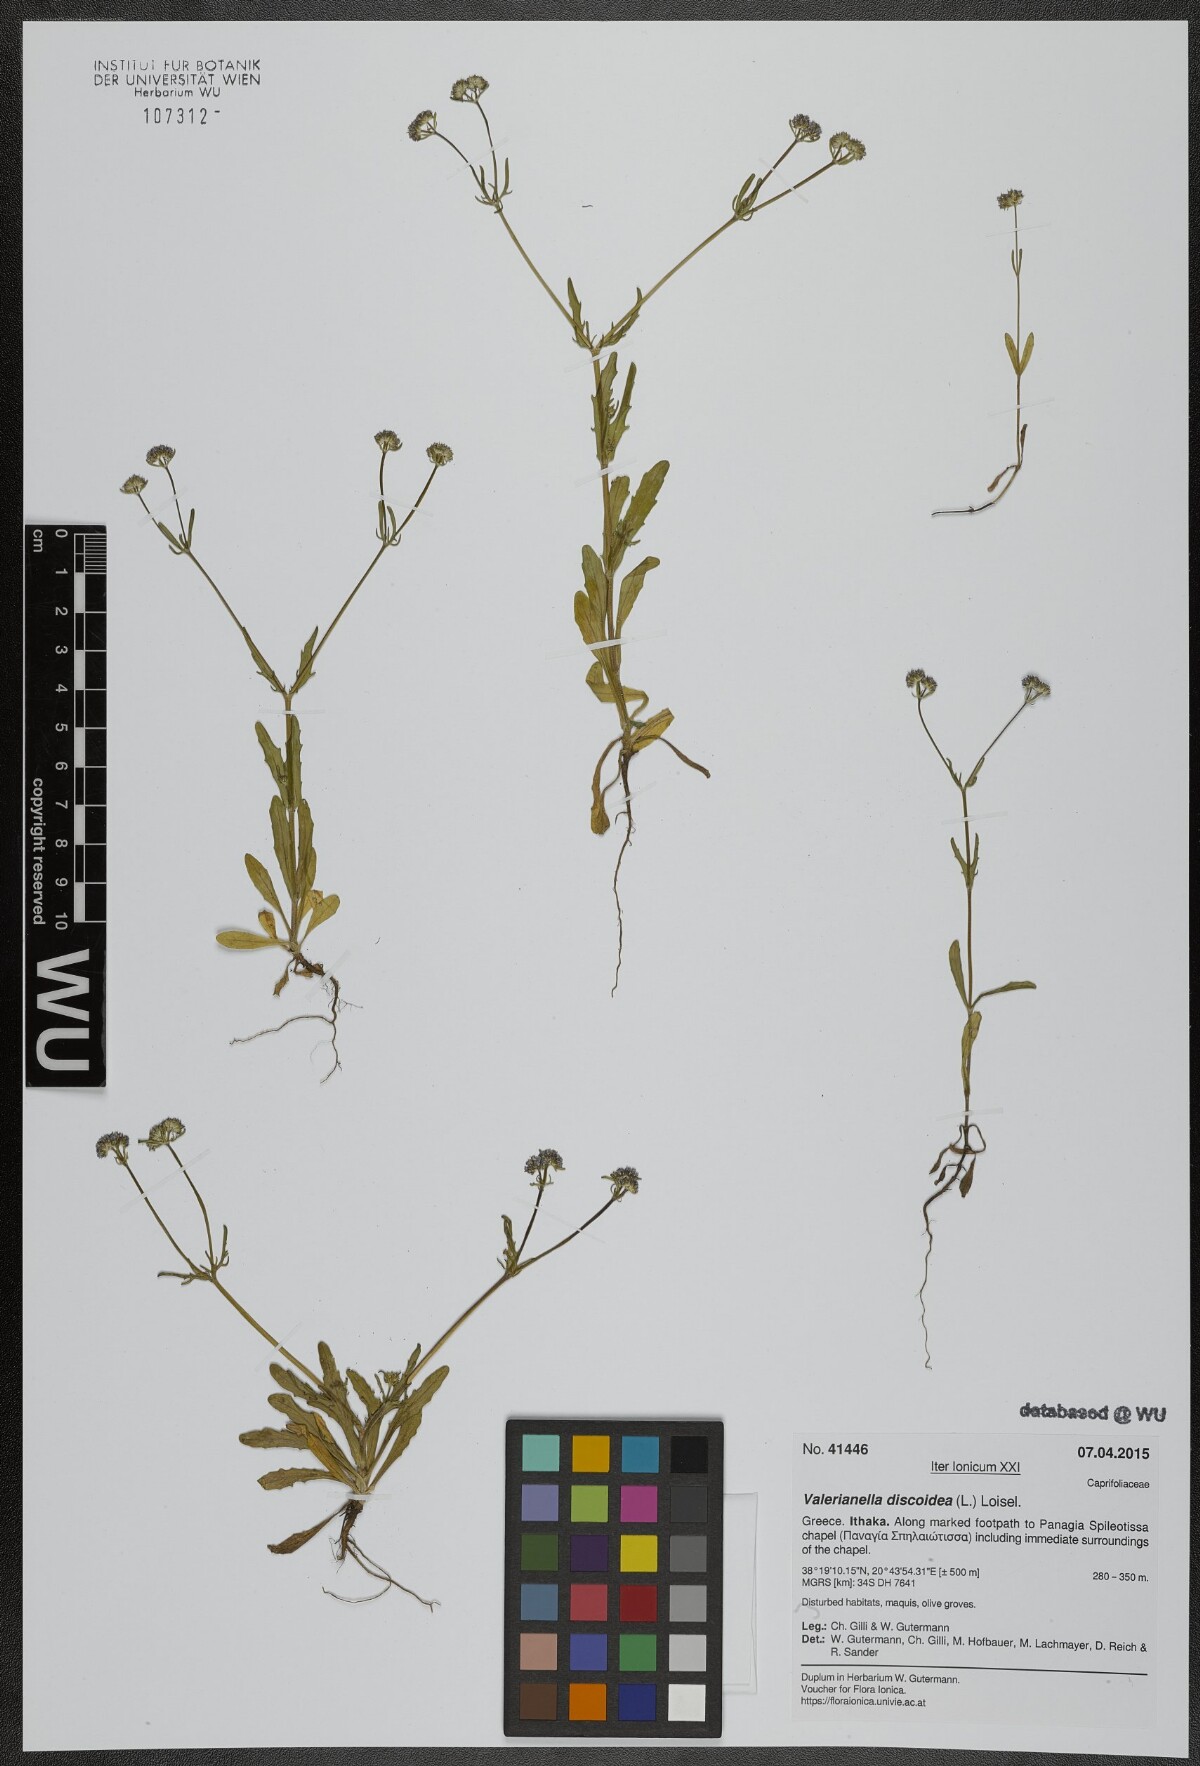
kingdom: Plantae
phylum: Tracheophyta
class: Magnoliopsida
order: Dipsacales
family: Caprifoliaceae
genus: Valerianella
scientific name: Valerianella discoidea
